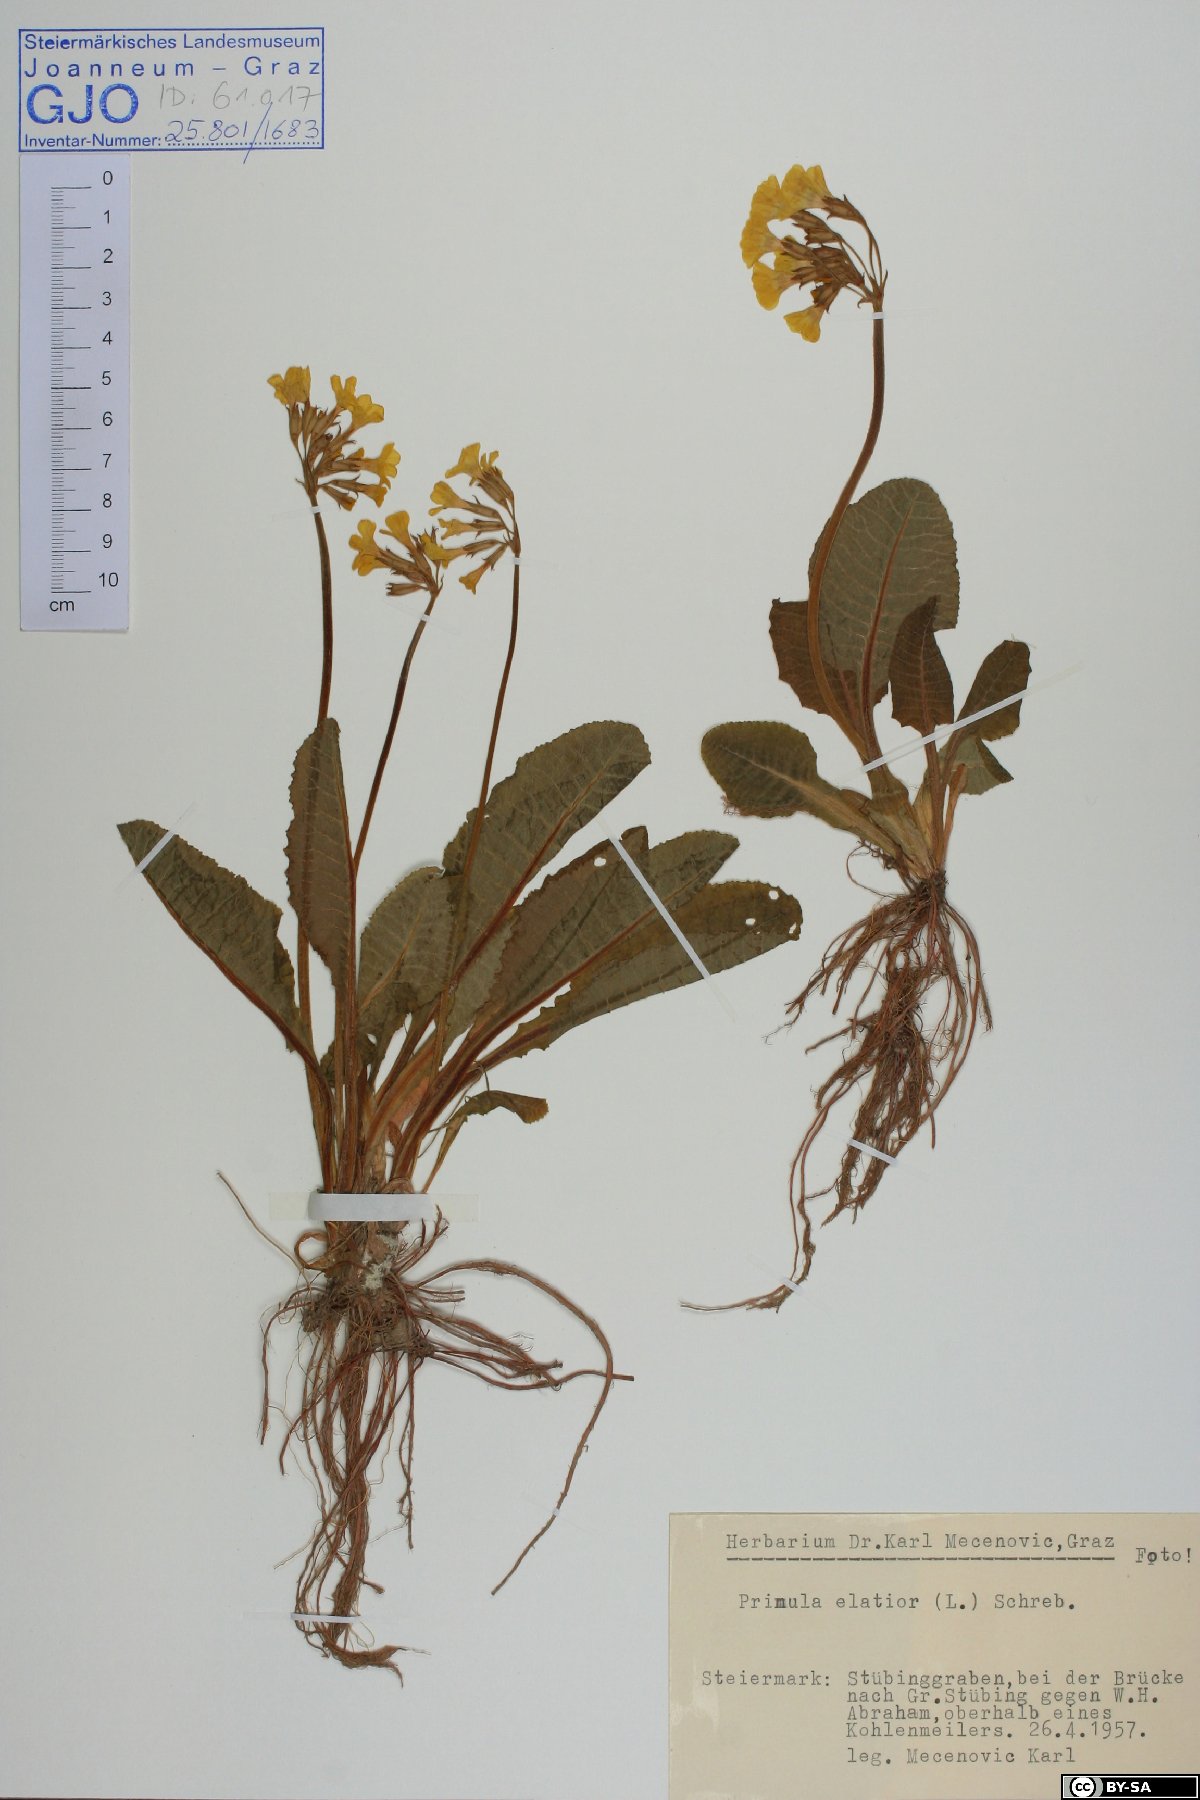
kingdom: Plantae
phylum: Tracheophyta
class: Magnoliopsida
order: Ericales
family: Primulaceae
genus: Primula
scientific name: Primula elatior
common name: Oxlip
